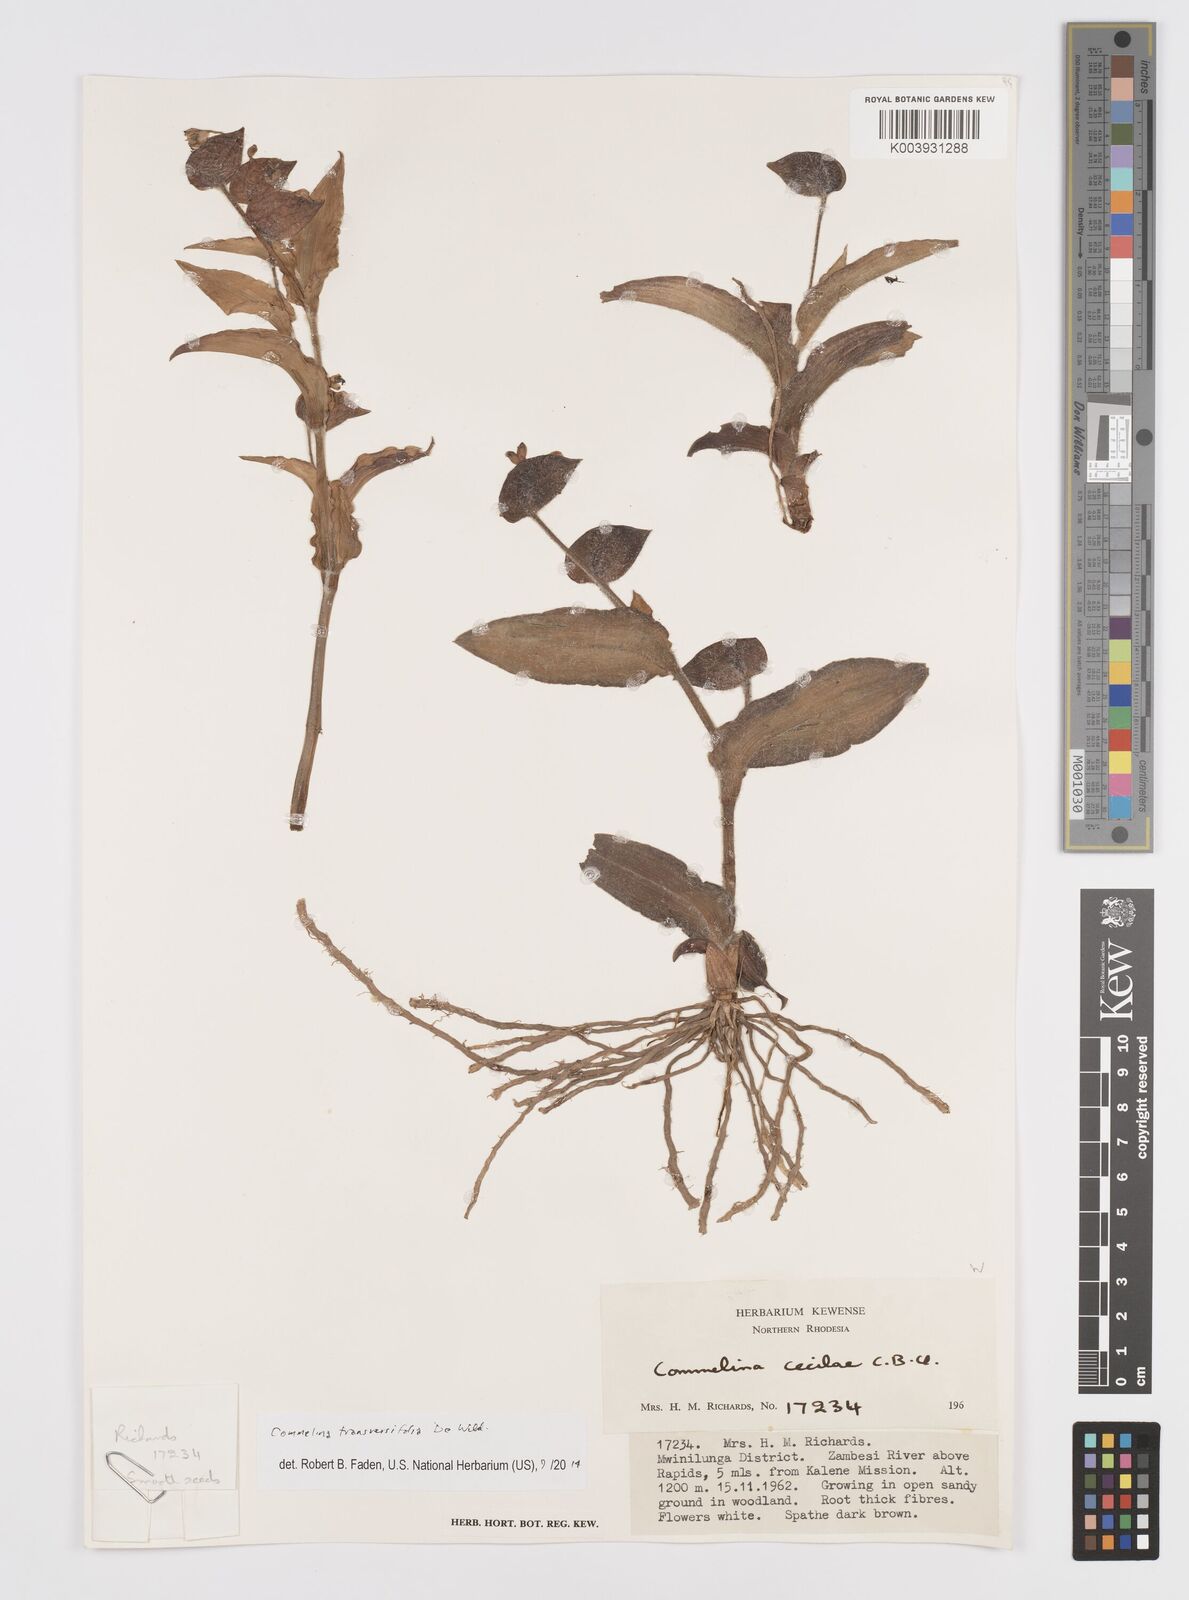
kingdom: Plantae
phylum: Tracheophyta
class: Liliopsida
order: Commelinales
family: Commelinaceae
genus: Commelina
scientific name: Commelina transversifolia
